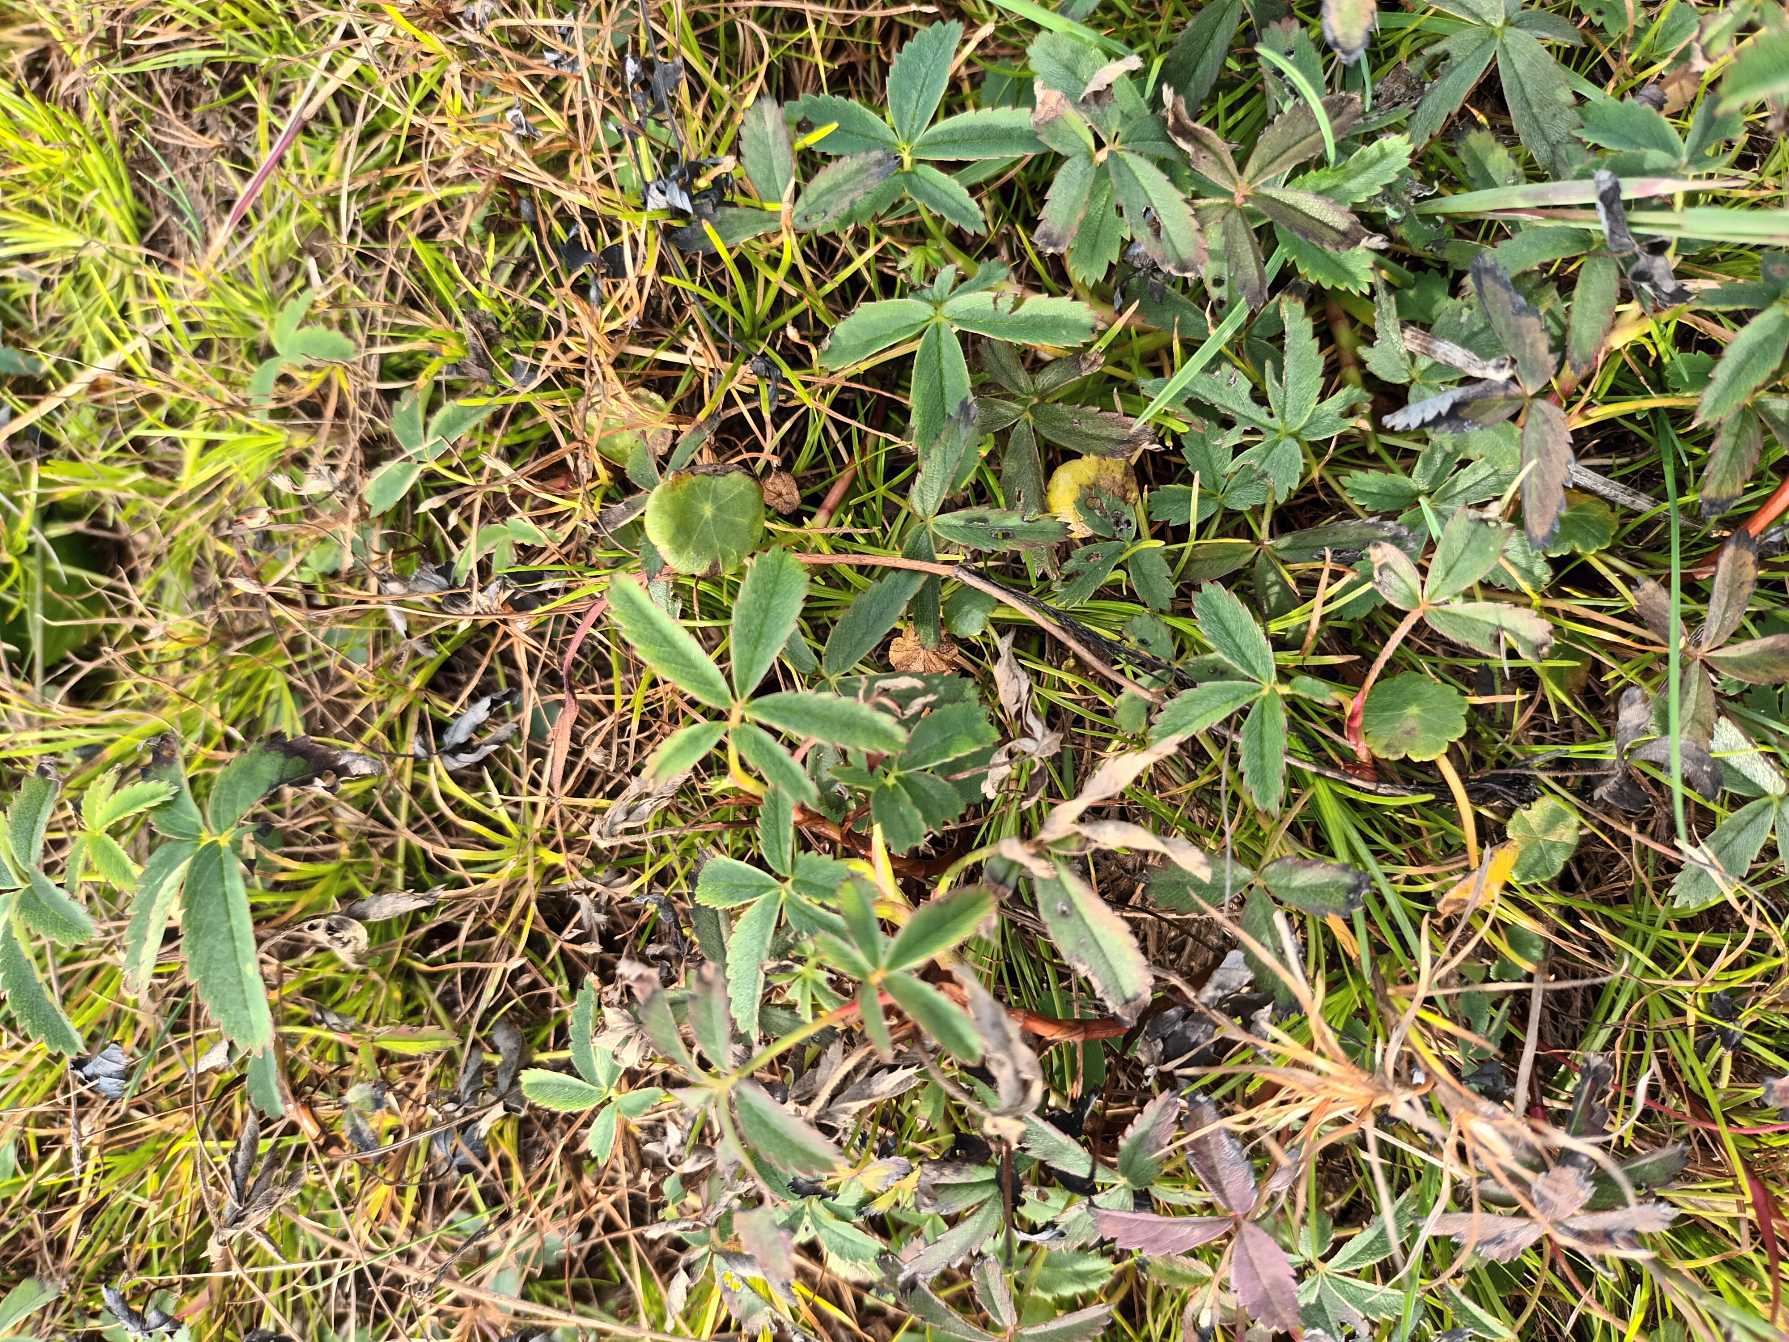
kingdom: Plantae
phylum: Tracheophyta
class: Magnoliopsida
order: Rosales
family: Rosaceae
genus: Comarum
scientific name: Comarum palustre
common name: Kragefod
